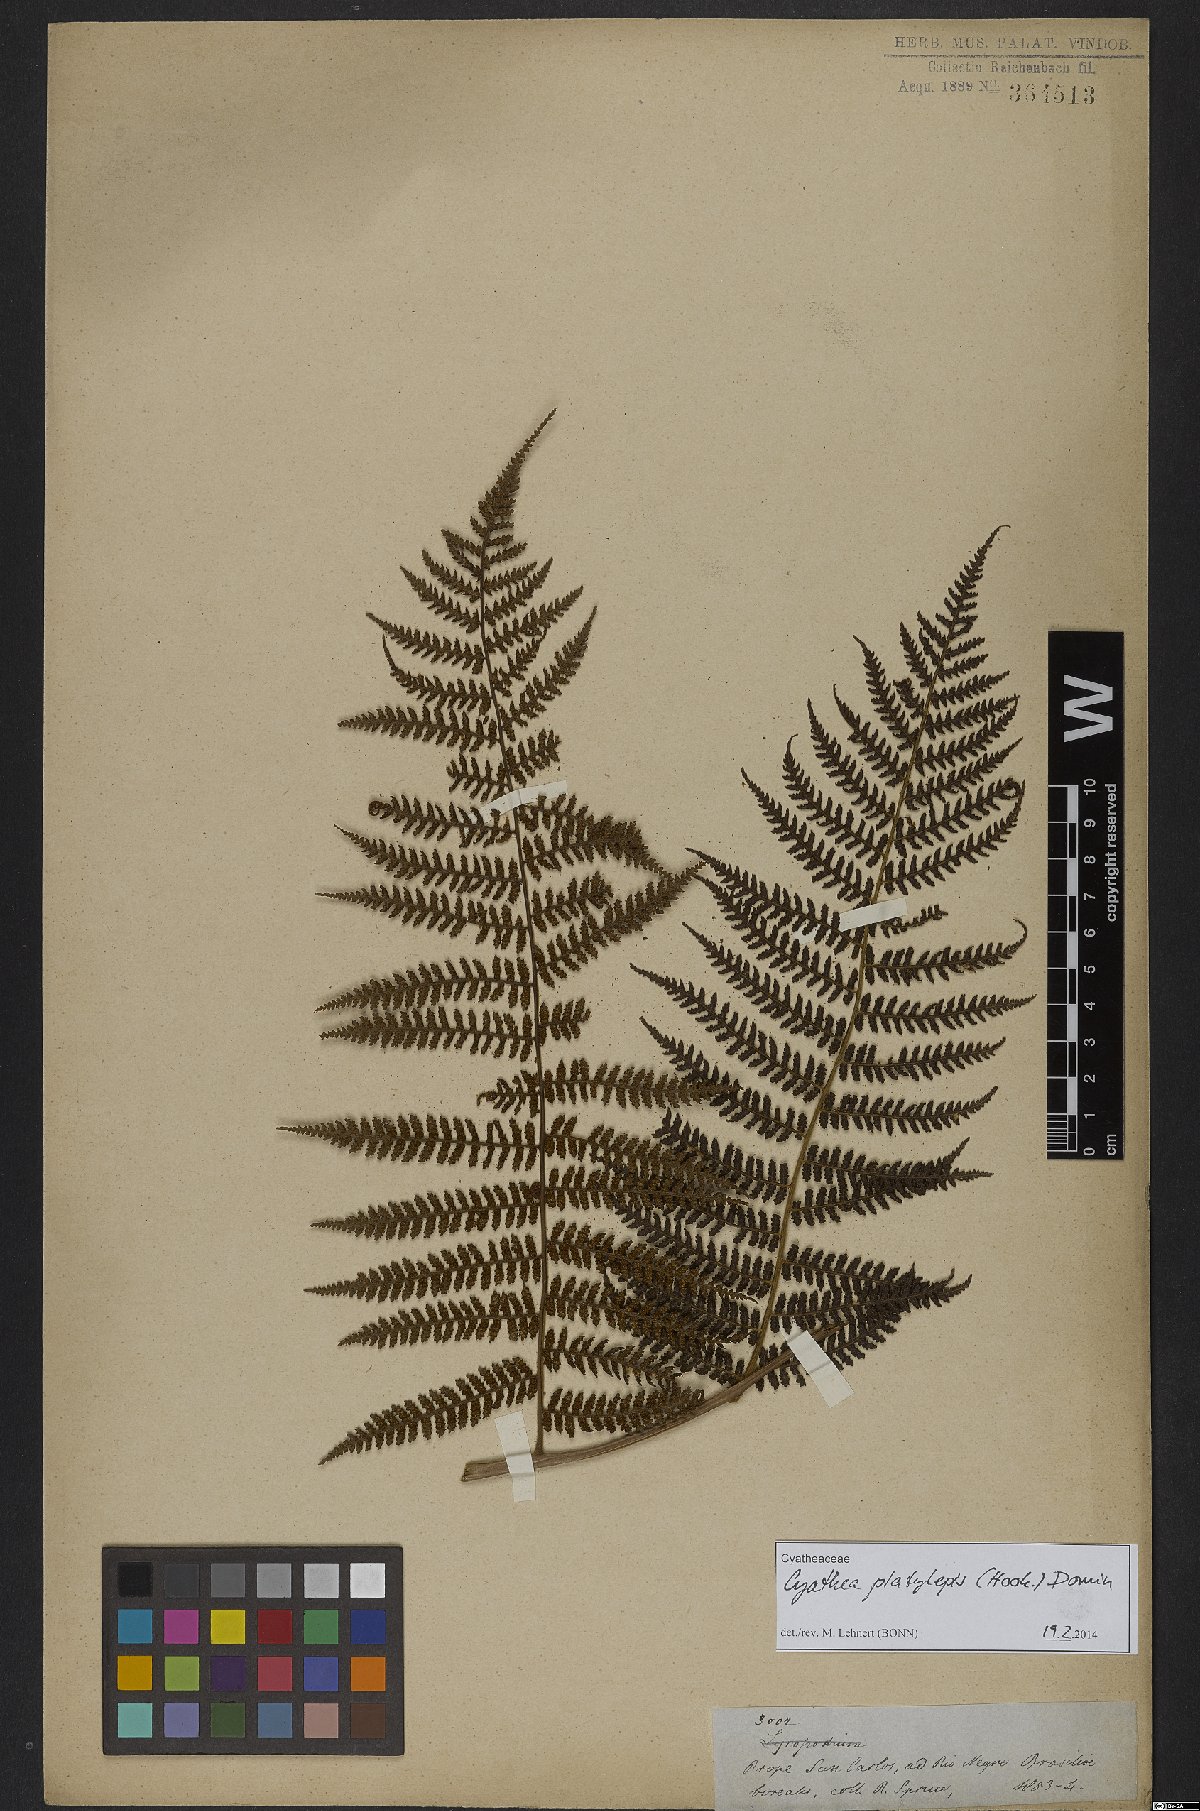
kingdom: Plantae
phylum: Tracheophyta
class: Polypodiopsida
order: Cyatheales
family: Cyatheaceae
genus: Cyathea
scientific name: Cyathea platylepis
